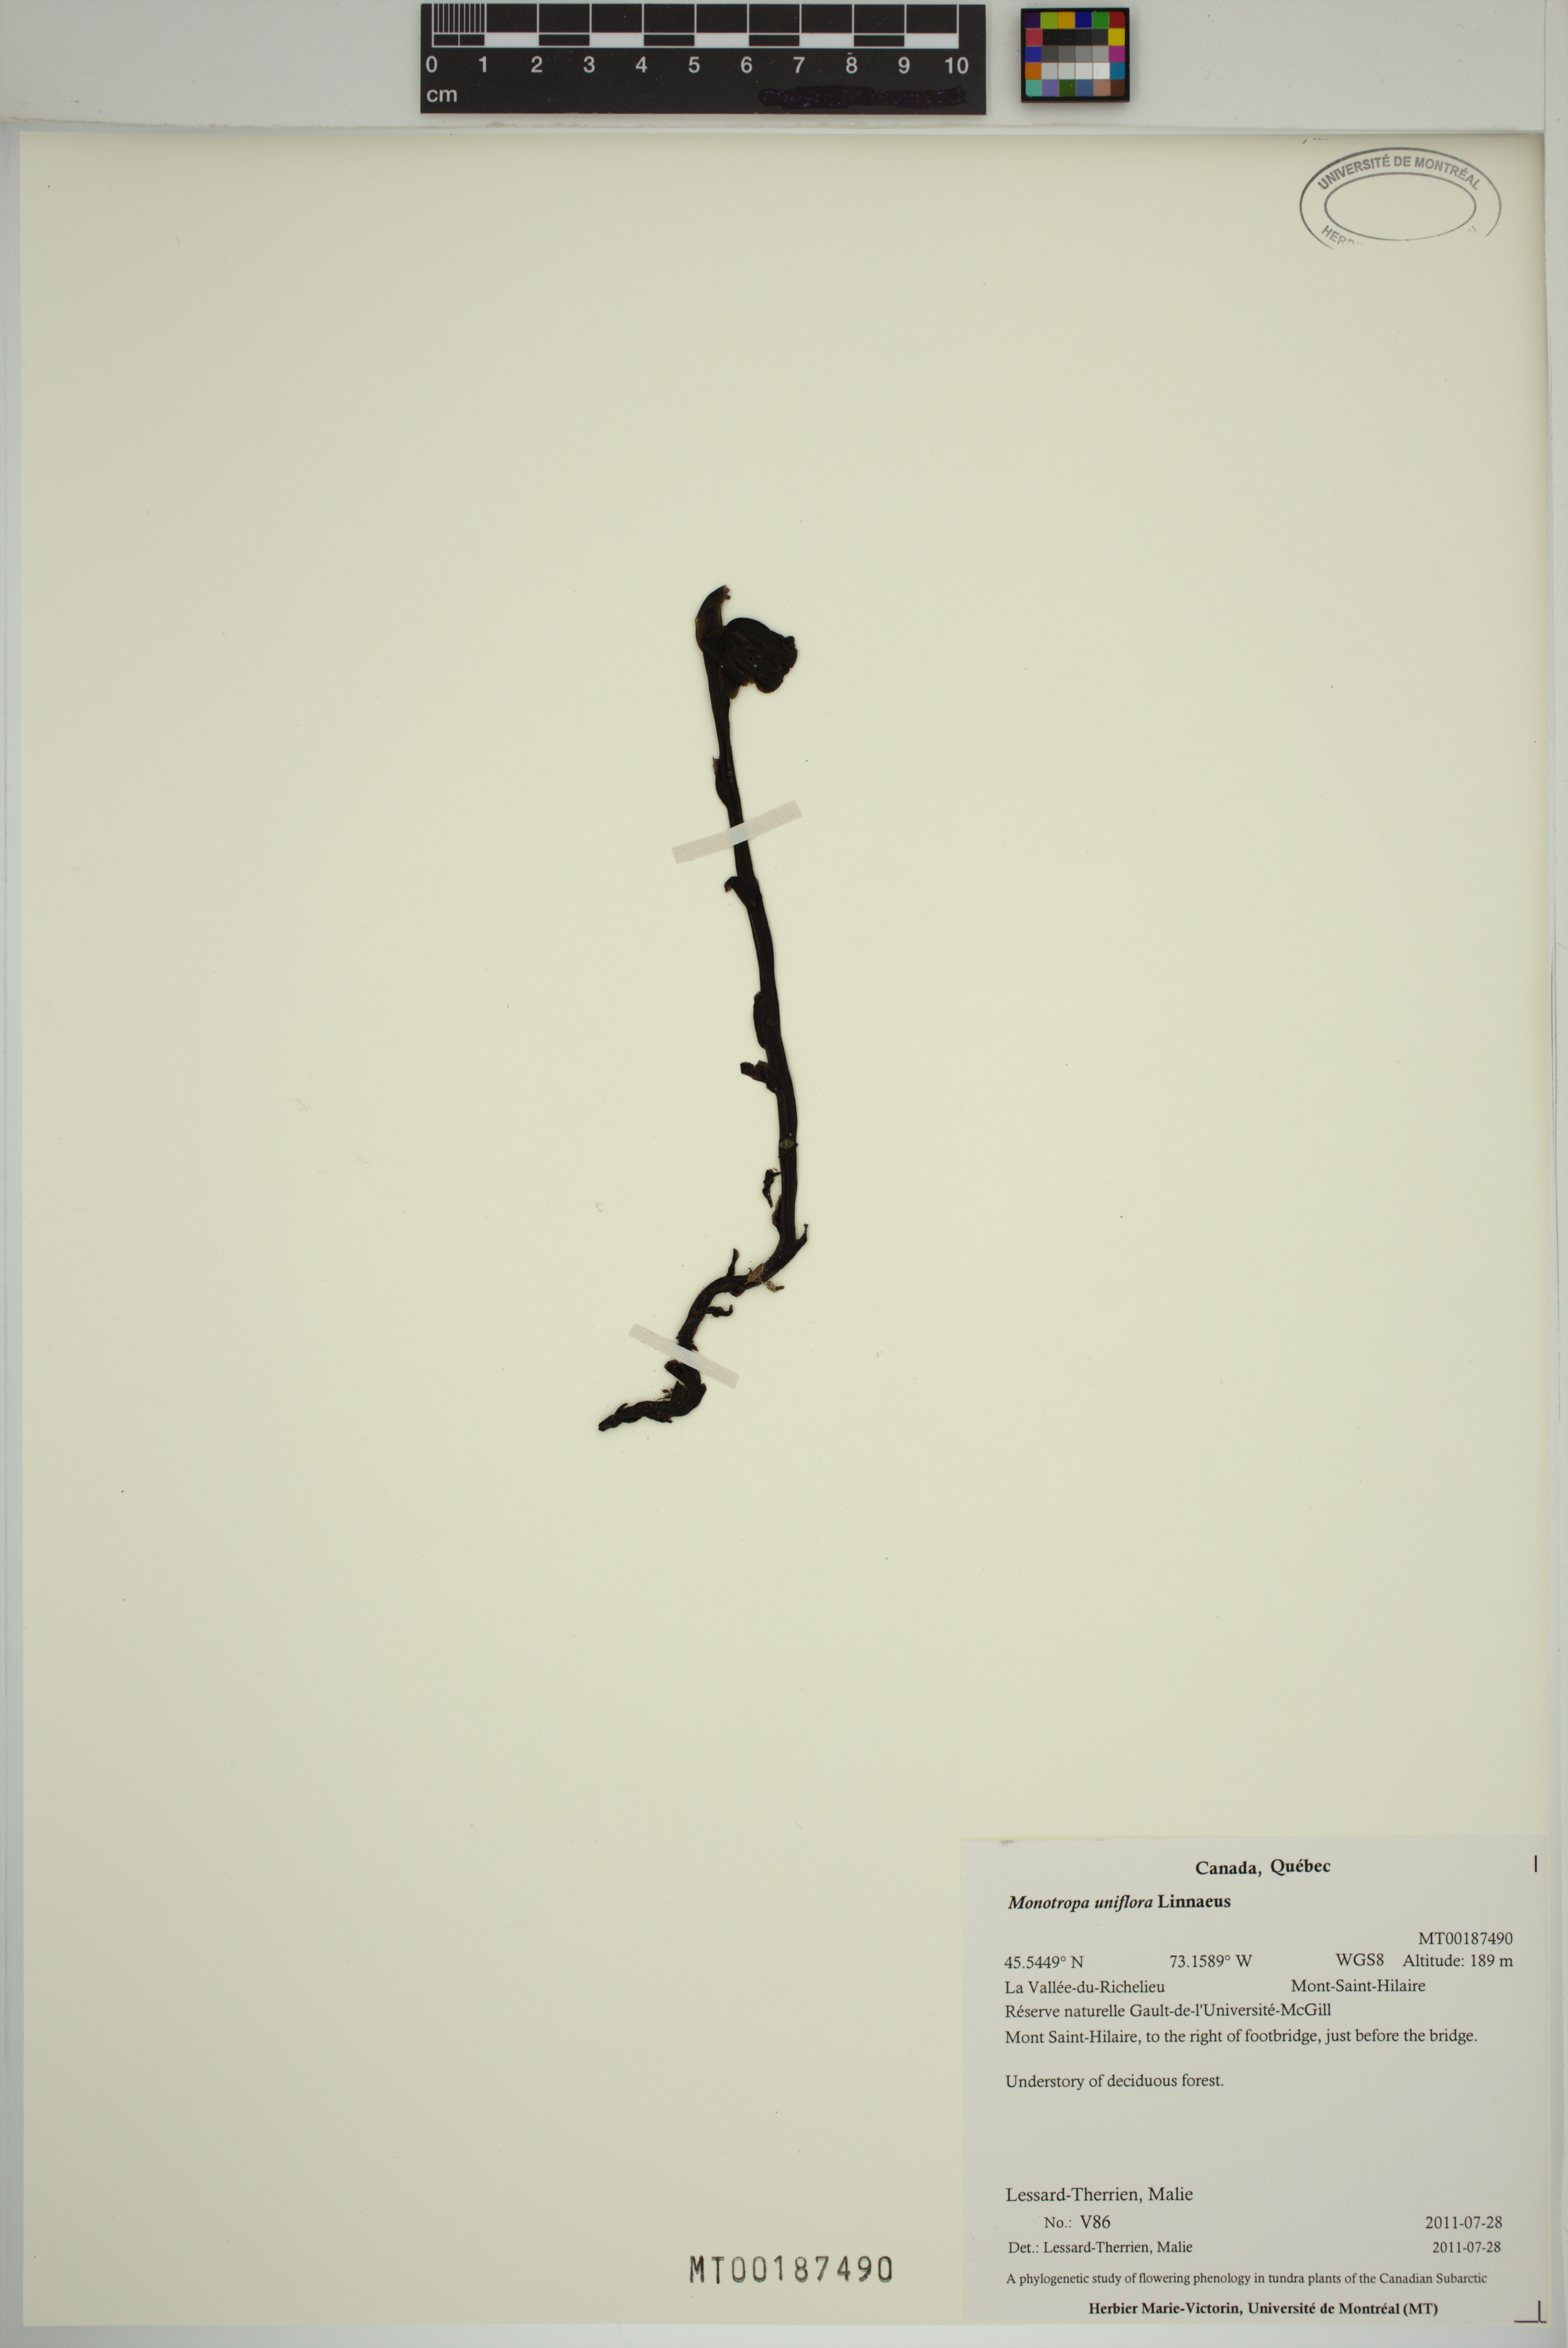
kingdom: Plantae
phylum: Tracheophyta
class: Magnoliopsida
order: Ericales
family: Ericaceae
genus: Monotropa
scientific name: Monotropa uniflora
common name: Convulsion root
